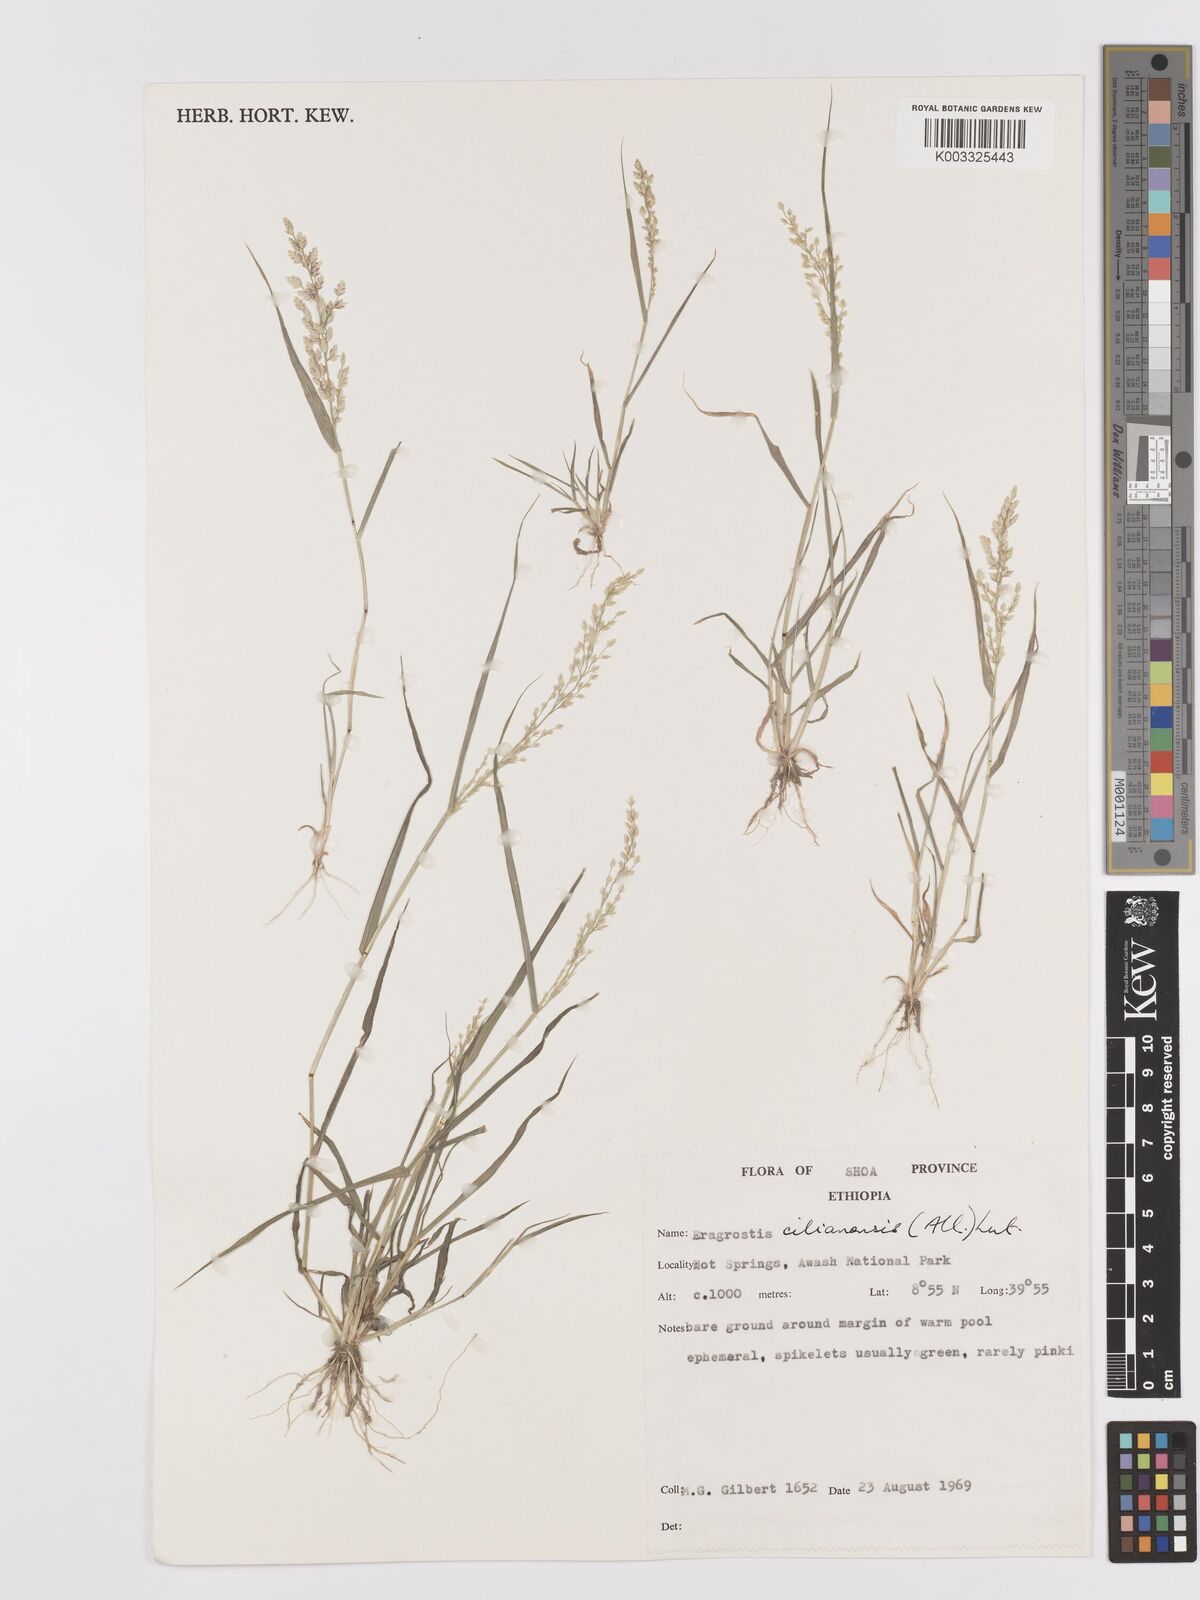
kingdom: Plantae
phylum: Tracheophyta
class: Liliopsida
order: Poales
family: Poaceae
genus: Eragrostis
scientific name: Eragrostis cilianensis
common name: Stinkgrass
